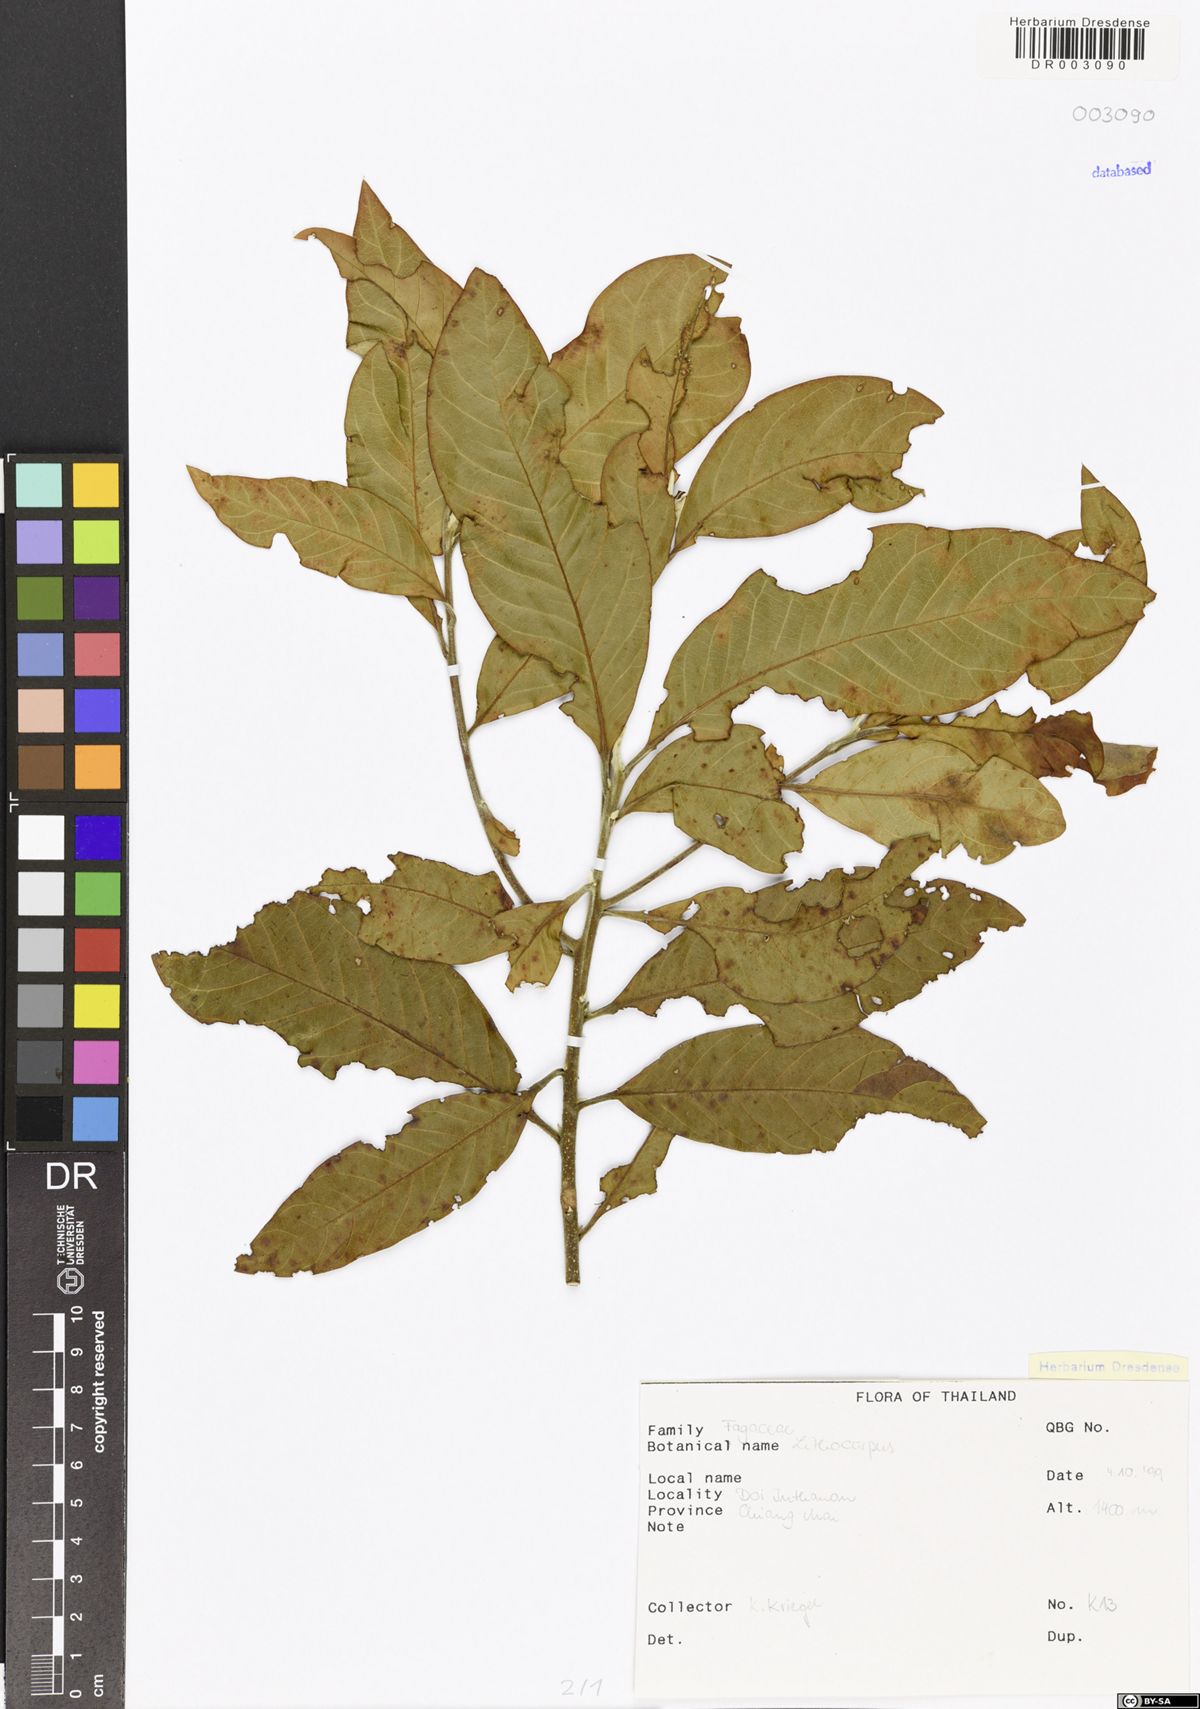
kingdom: Plantae
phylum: Tracheophyta
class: Magnoliopsida
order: Fagales
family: Fagaceae
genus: Lithocarpus
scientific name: Lithocarpus
